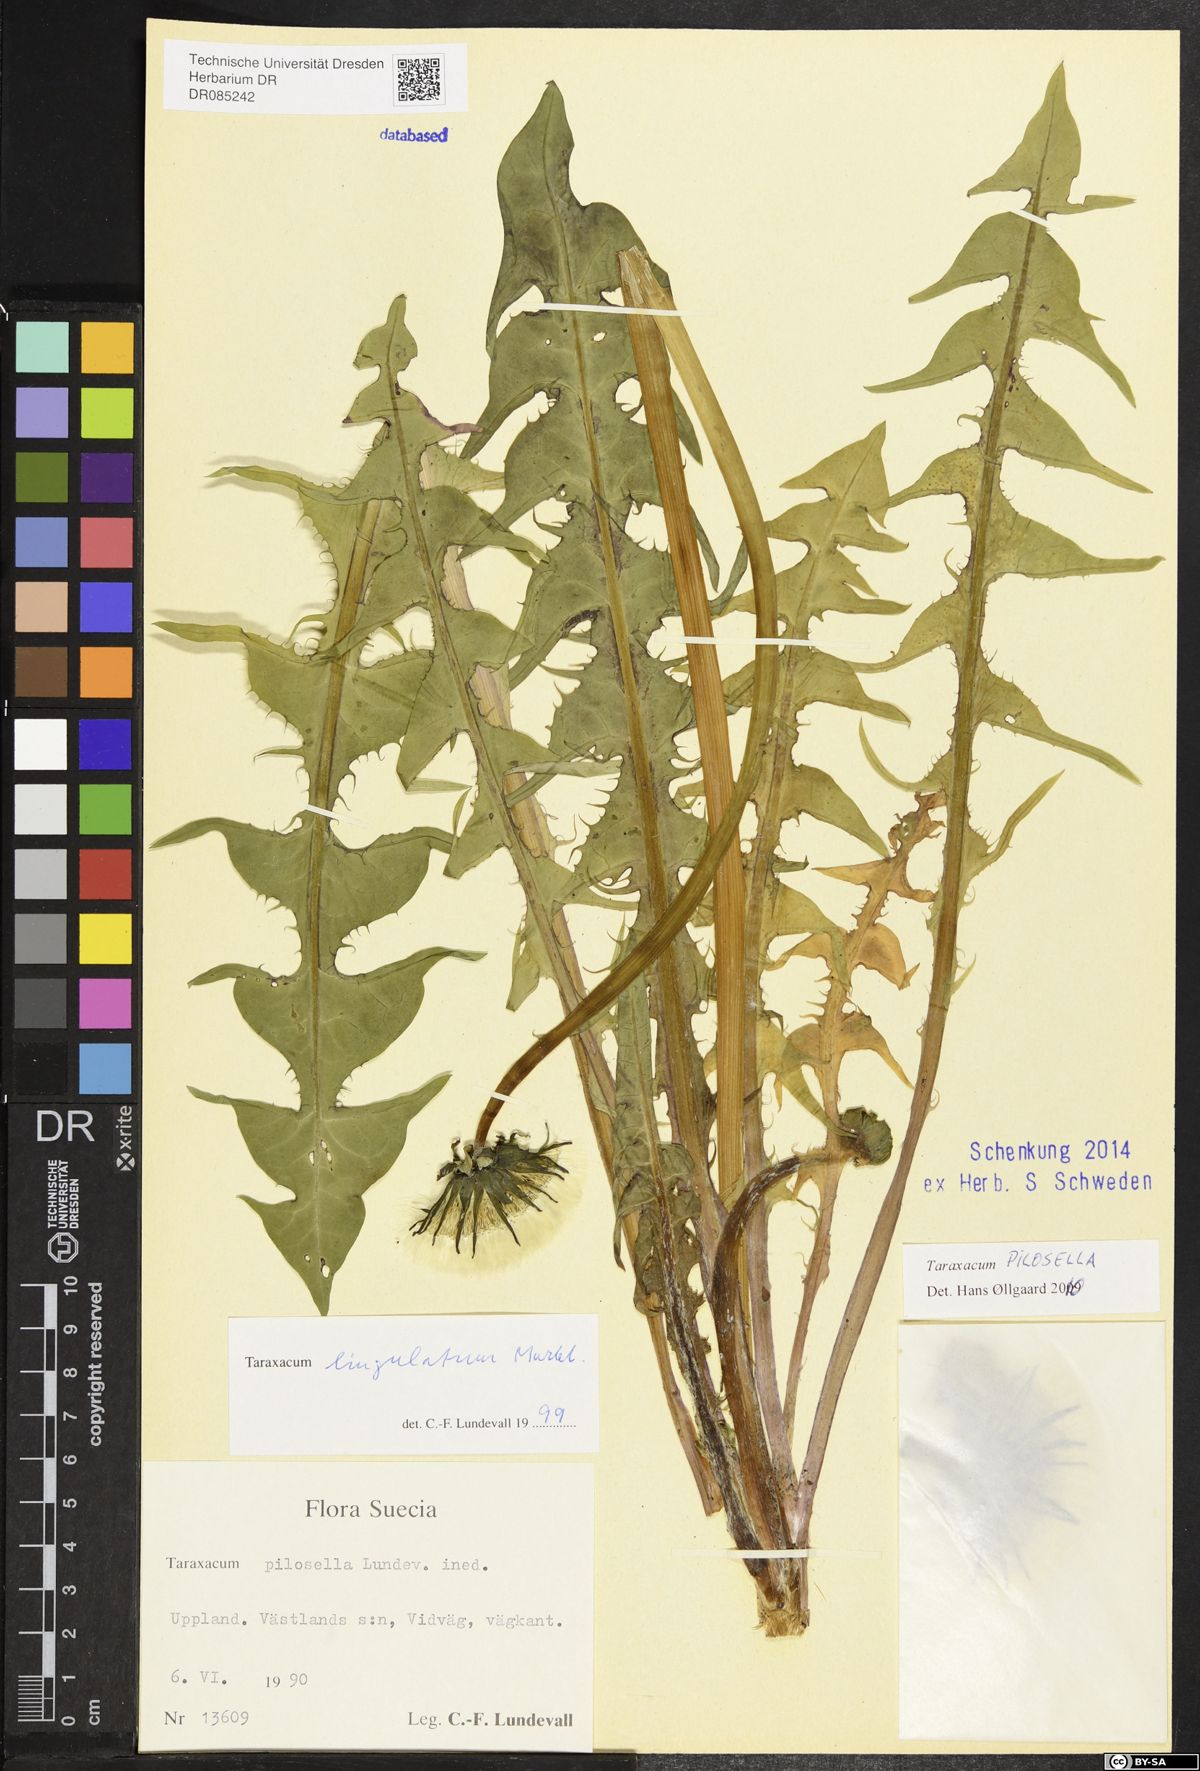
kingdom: Plantae
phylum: Tracheophyta
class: Magnoliopsida
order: Asterales
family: Asteraceae
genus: Taraxacum
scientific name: Taraxacum pilosella
